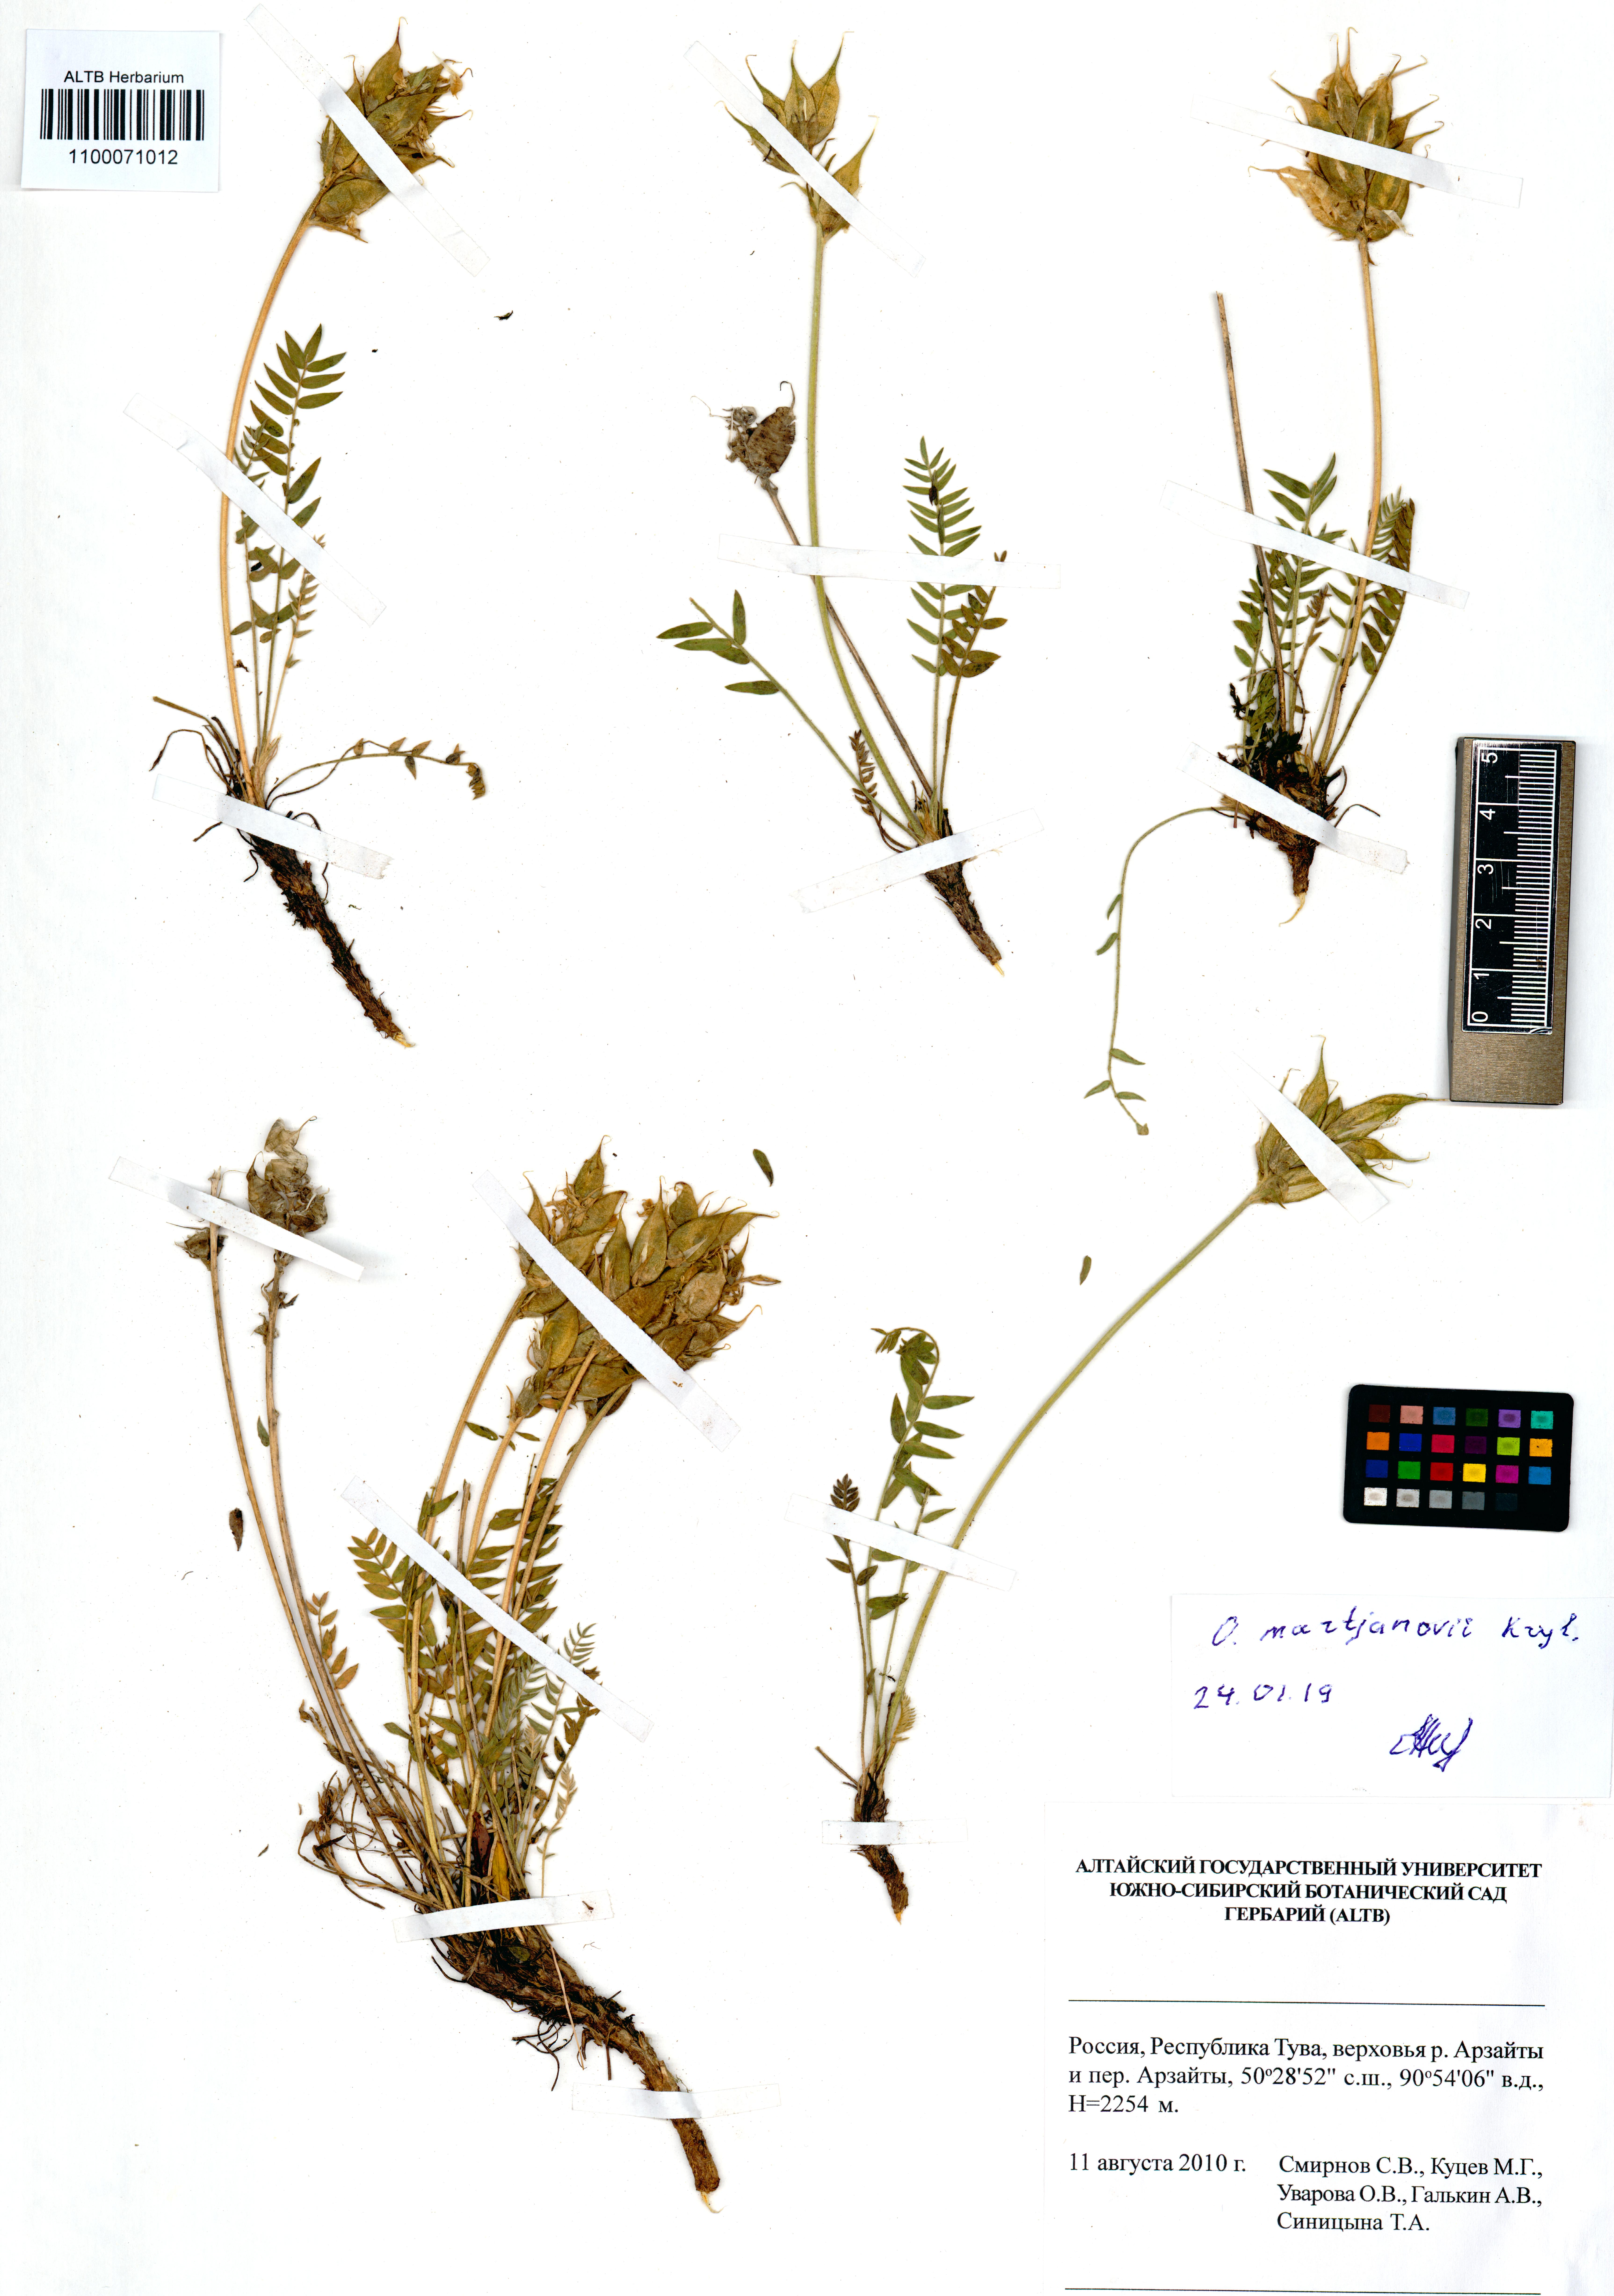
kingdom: Plantae
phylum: Tracheophyta
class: Magnoliopsida
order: Fabales
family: Fabaceae
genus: Oxytropis
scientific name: Oxytropis martjanovii
